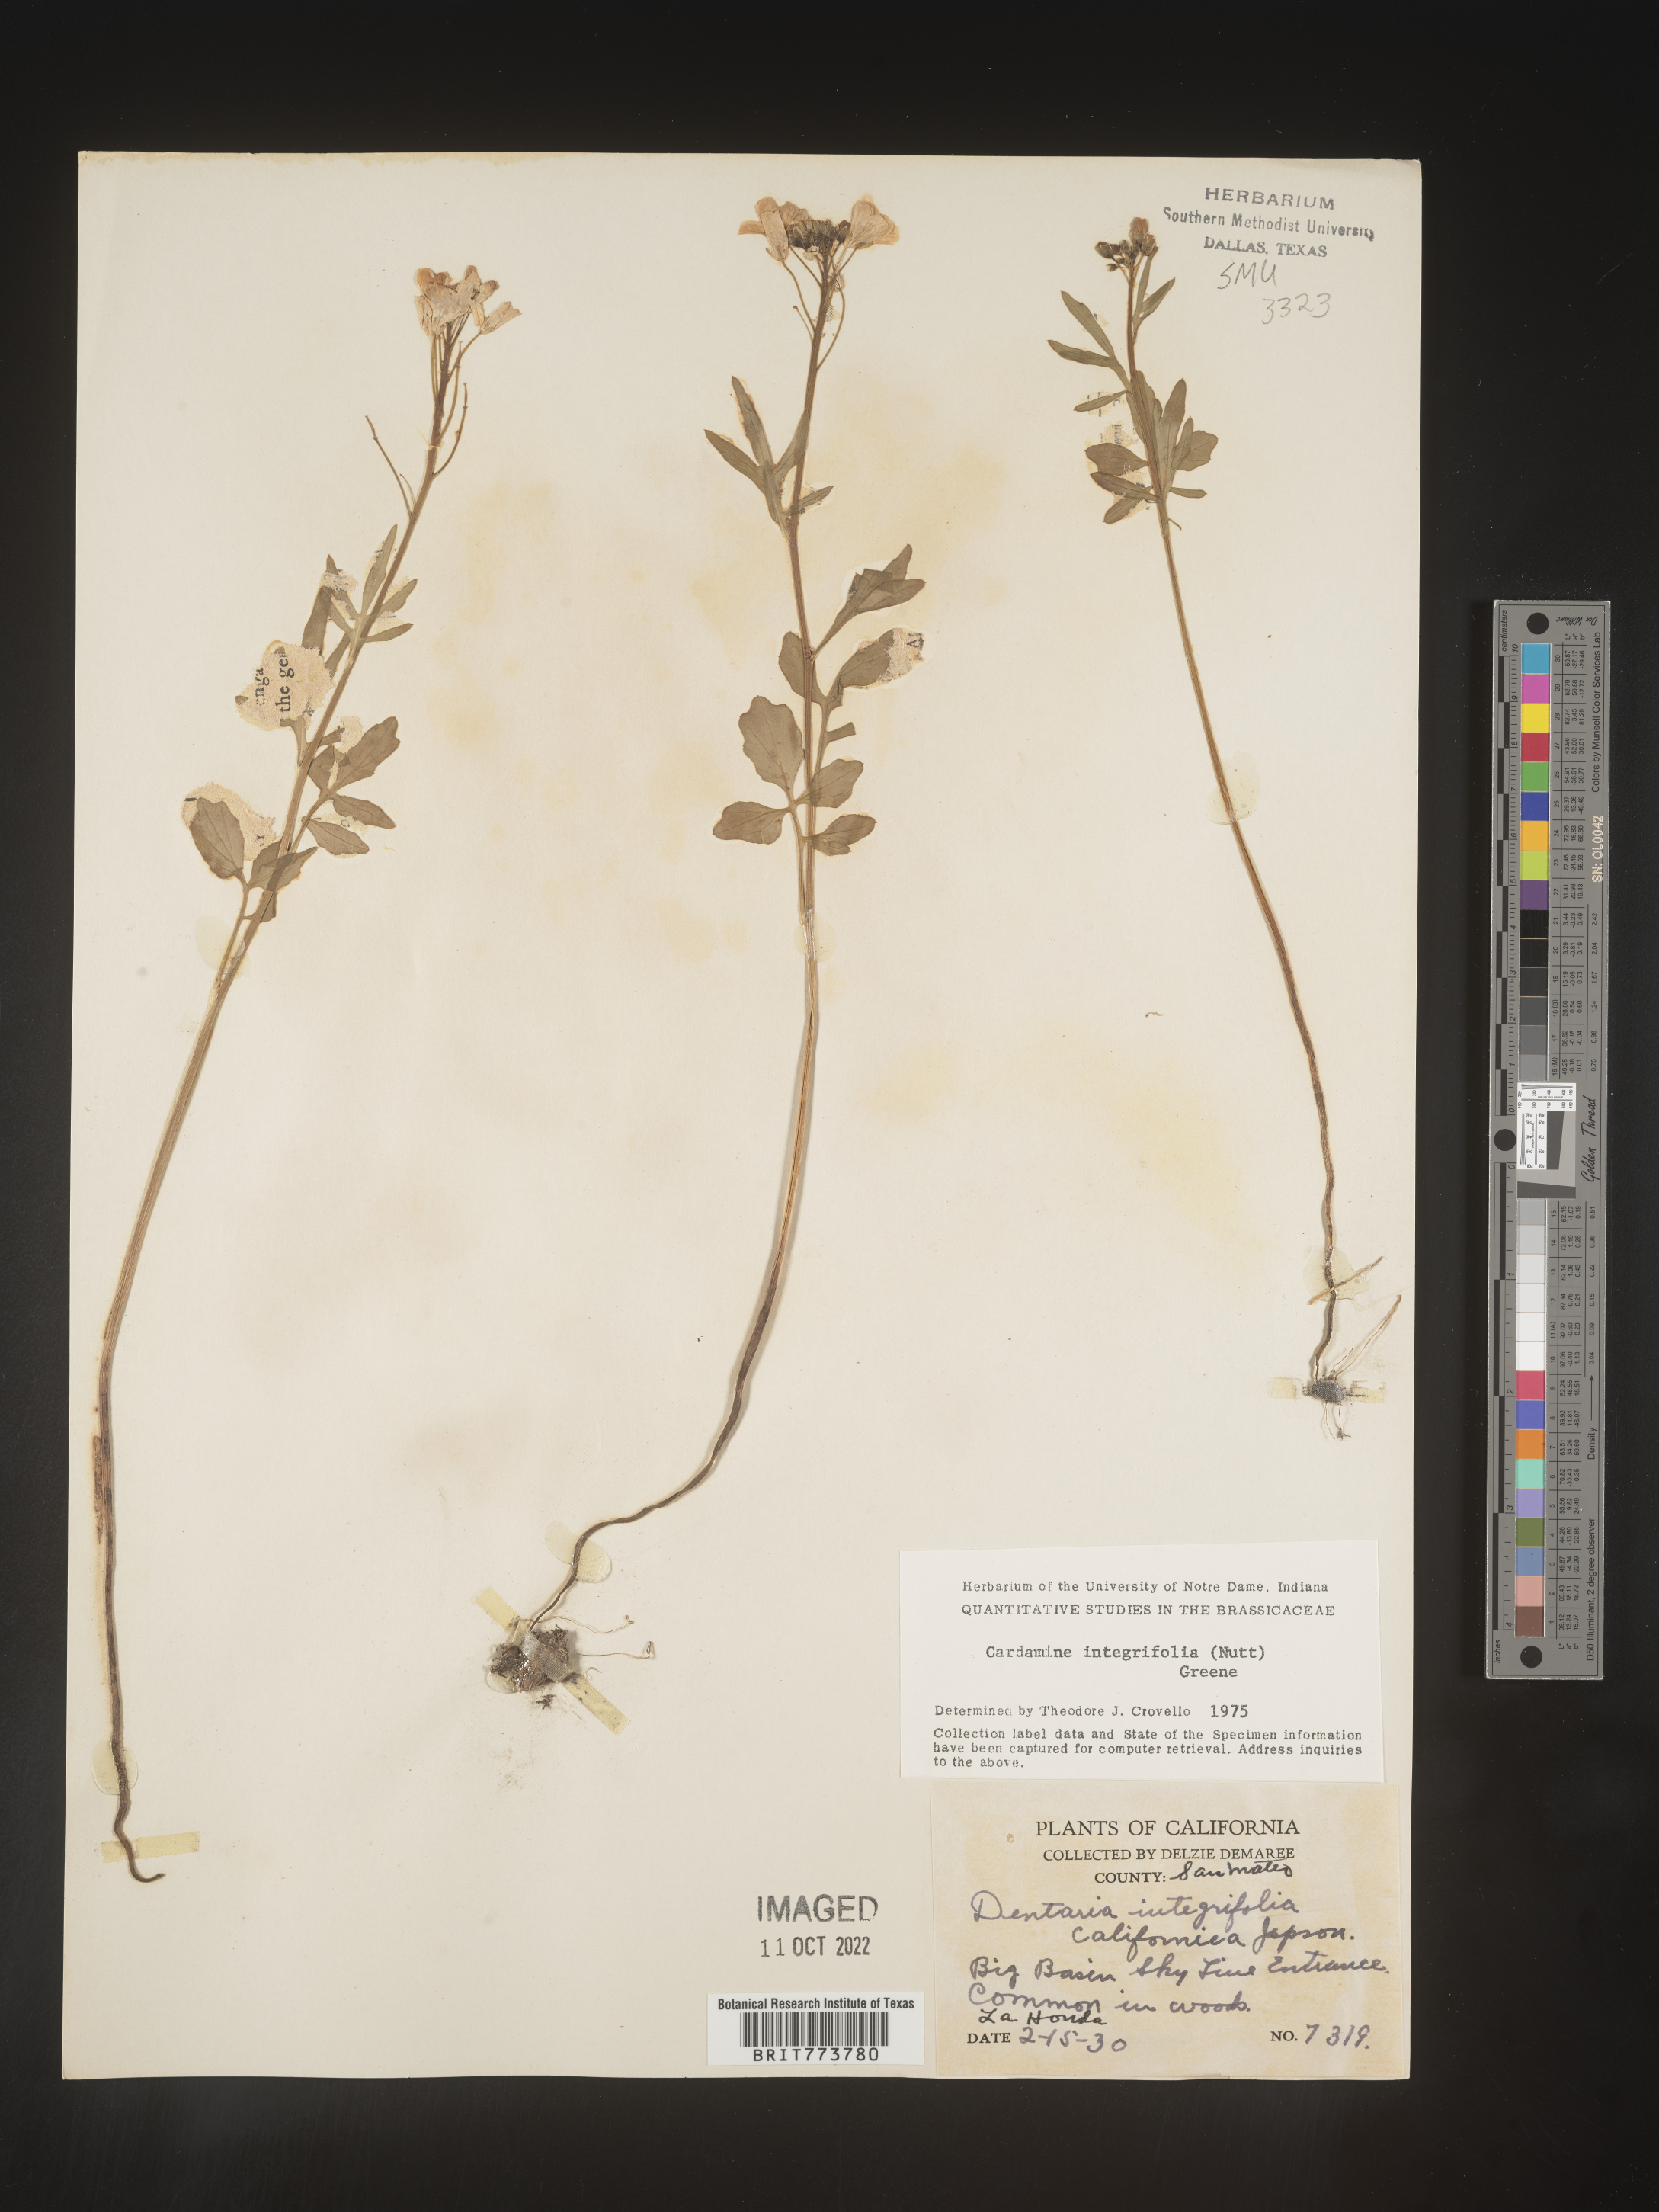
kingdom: Plantae
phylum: Tracheophyta
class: Magnoliopsida
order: Brassicales
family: Brassicaceae
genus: Cardamine
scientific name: Cardamine bellidifolia
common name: Alpine bittercress
